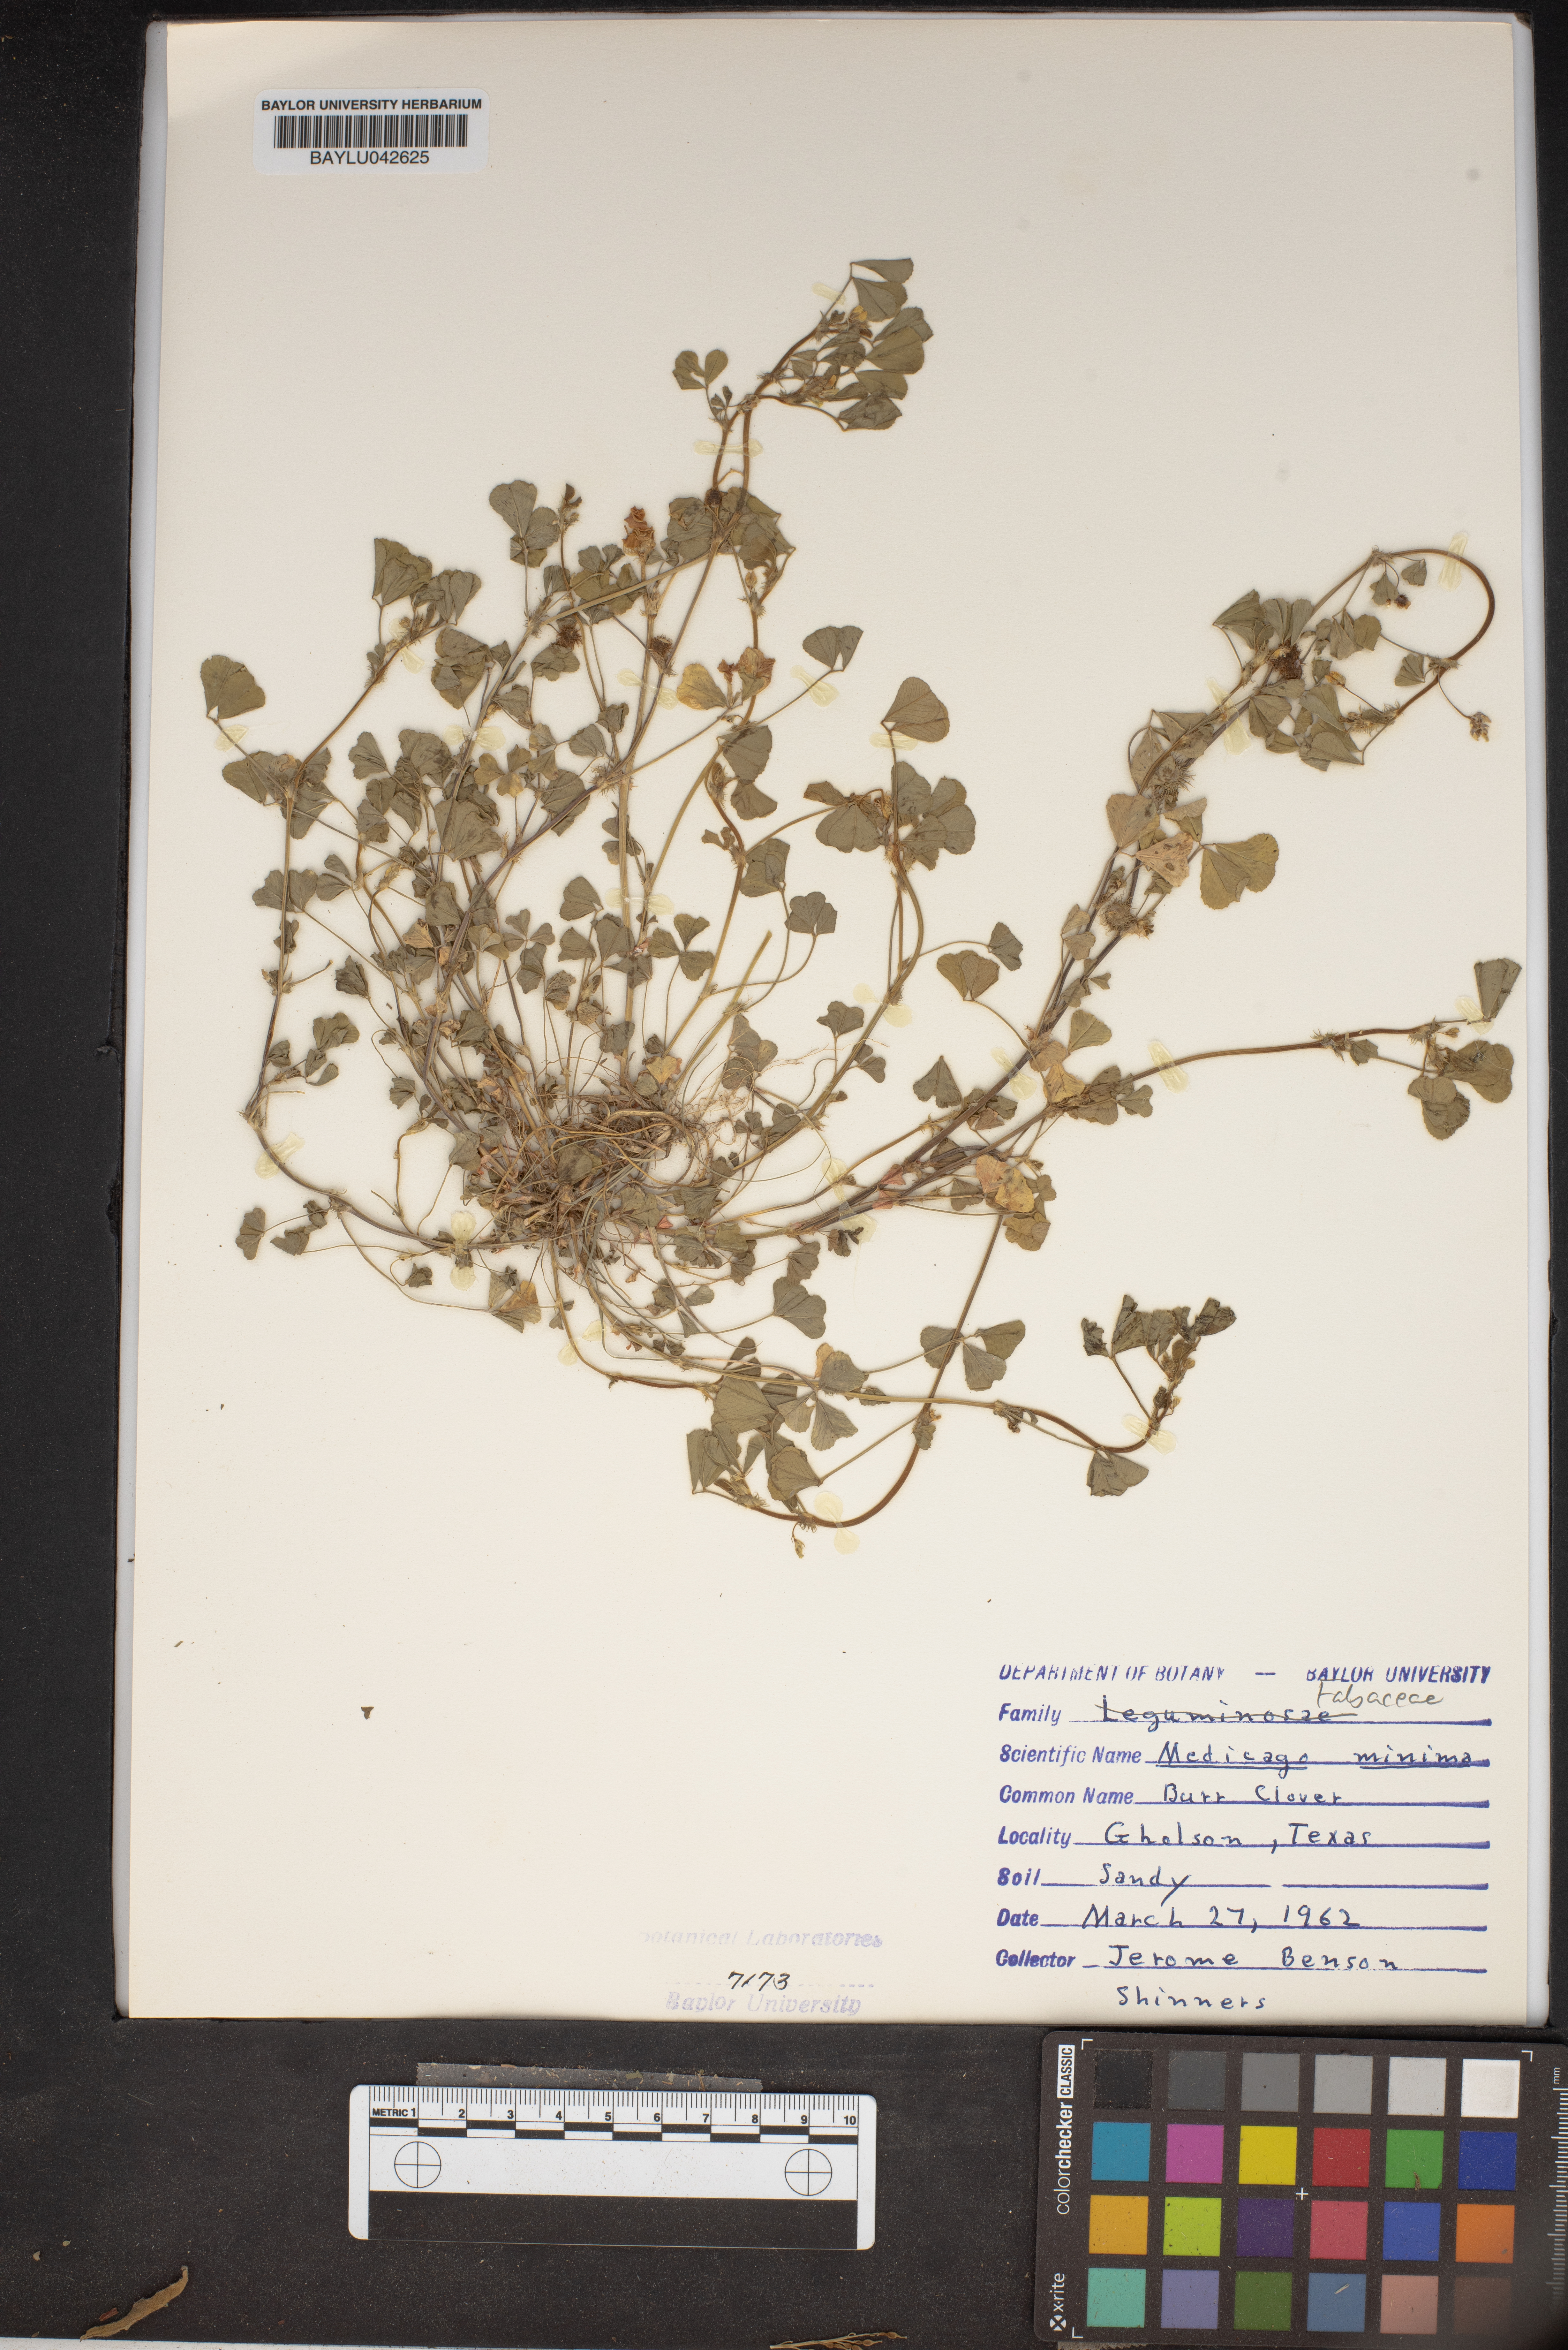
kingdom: Plantae
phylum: Tracheophyta
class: Magnoliopsida
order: Fabales
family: Fabaceae
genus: Medicago
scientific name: Medicago minima
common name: Little bur-clover
